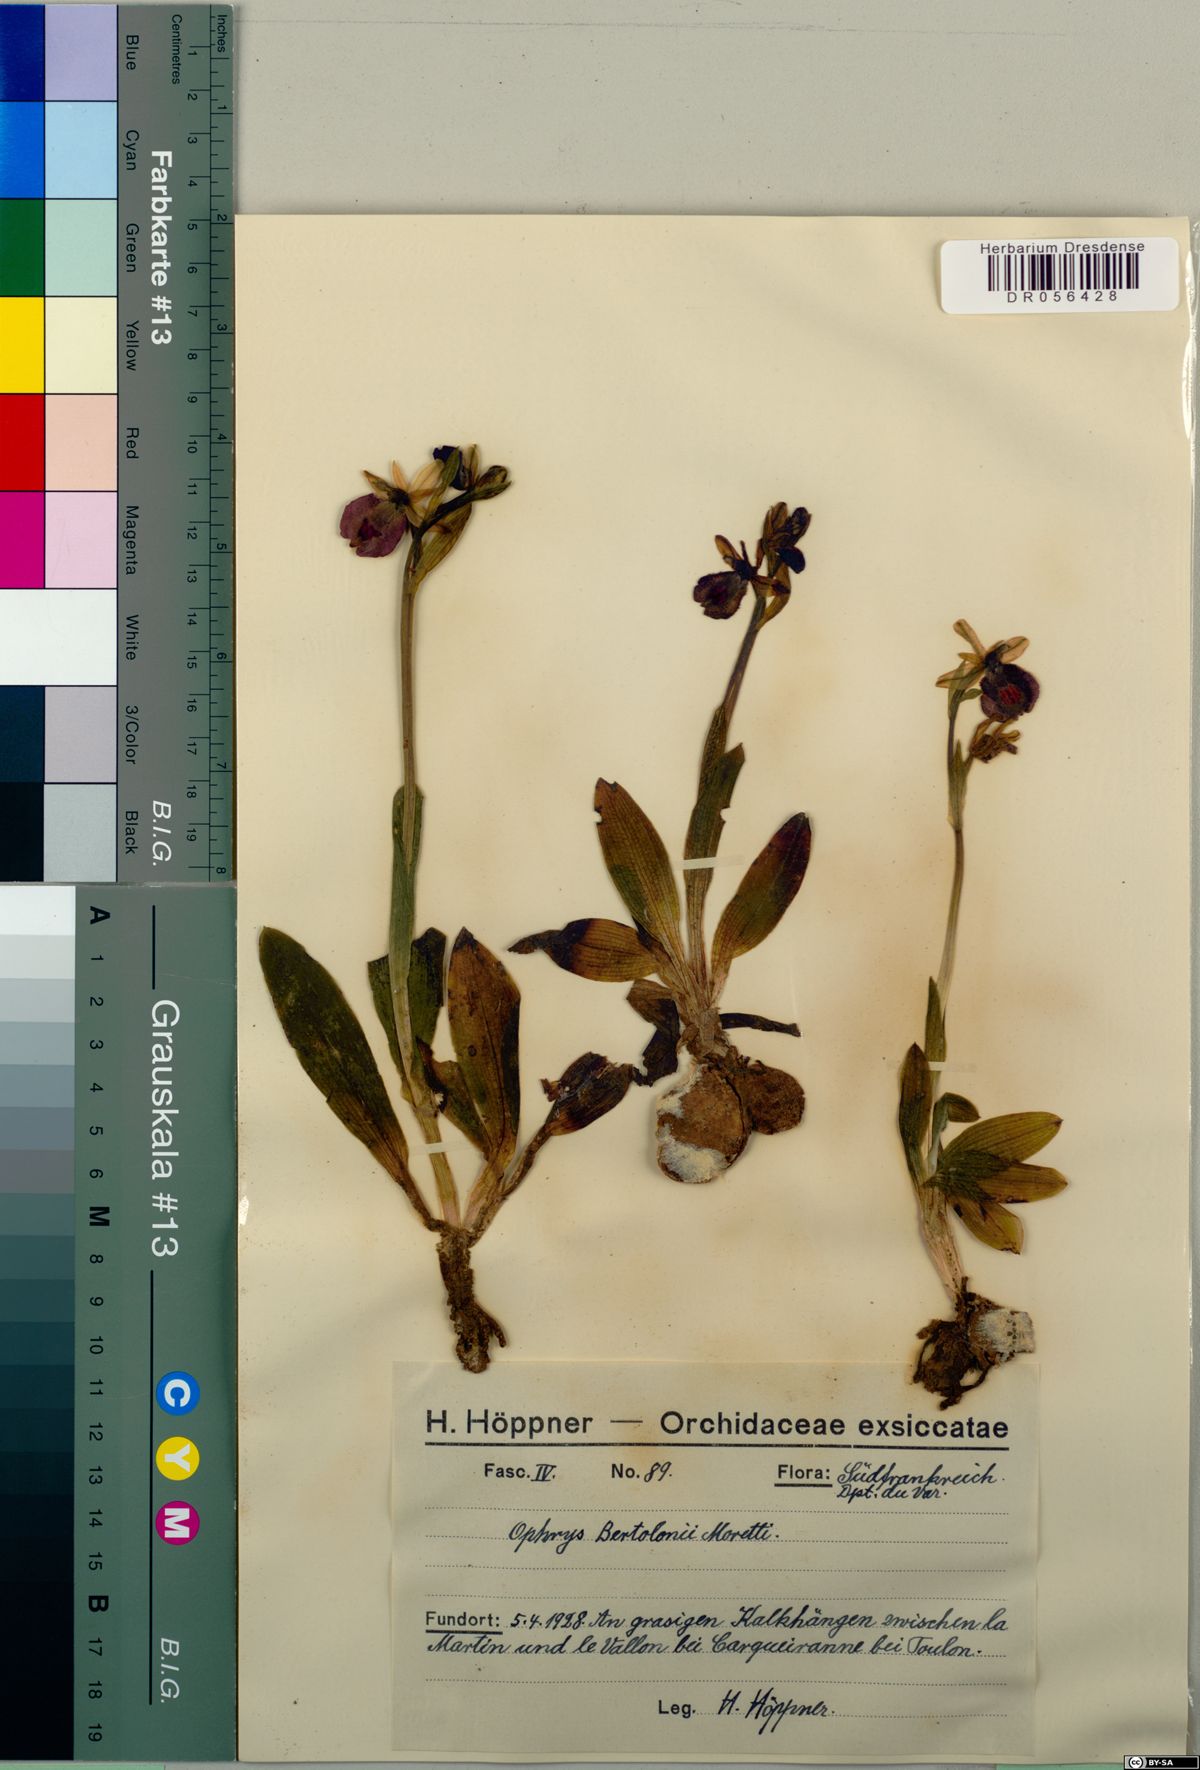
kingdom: Plantae
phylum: Tracheophyta
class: Liliopsida
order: Asparagales
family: Orchidaceae
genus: Ophrys
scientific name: Ophrys bertolonii
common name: Bertoloni's bee orchid
